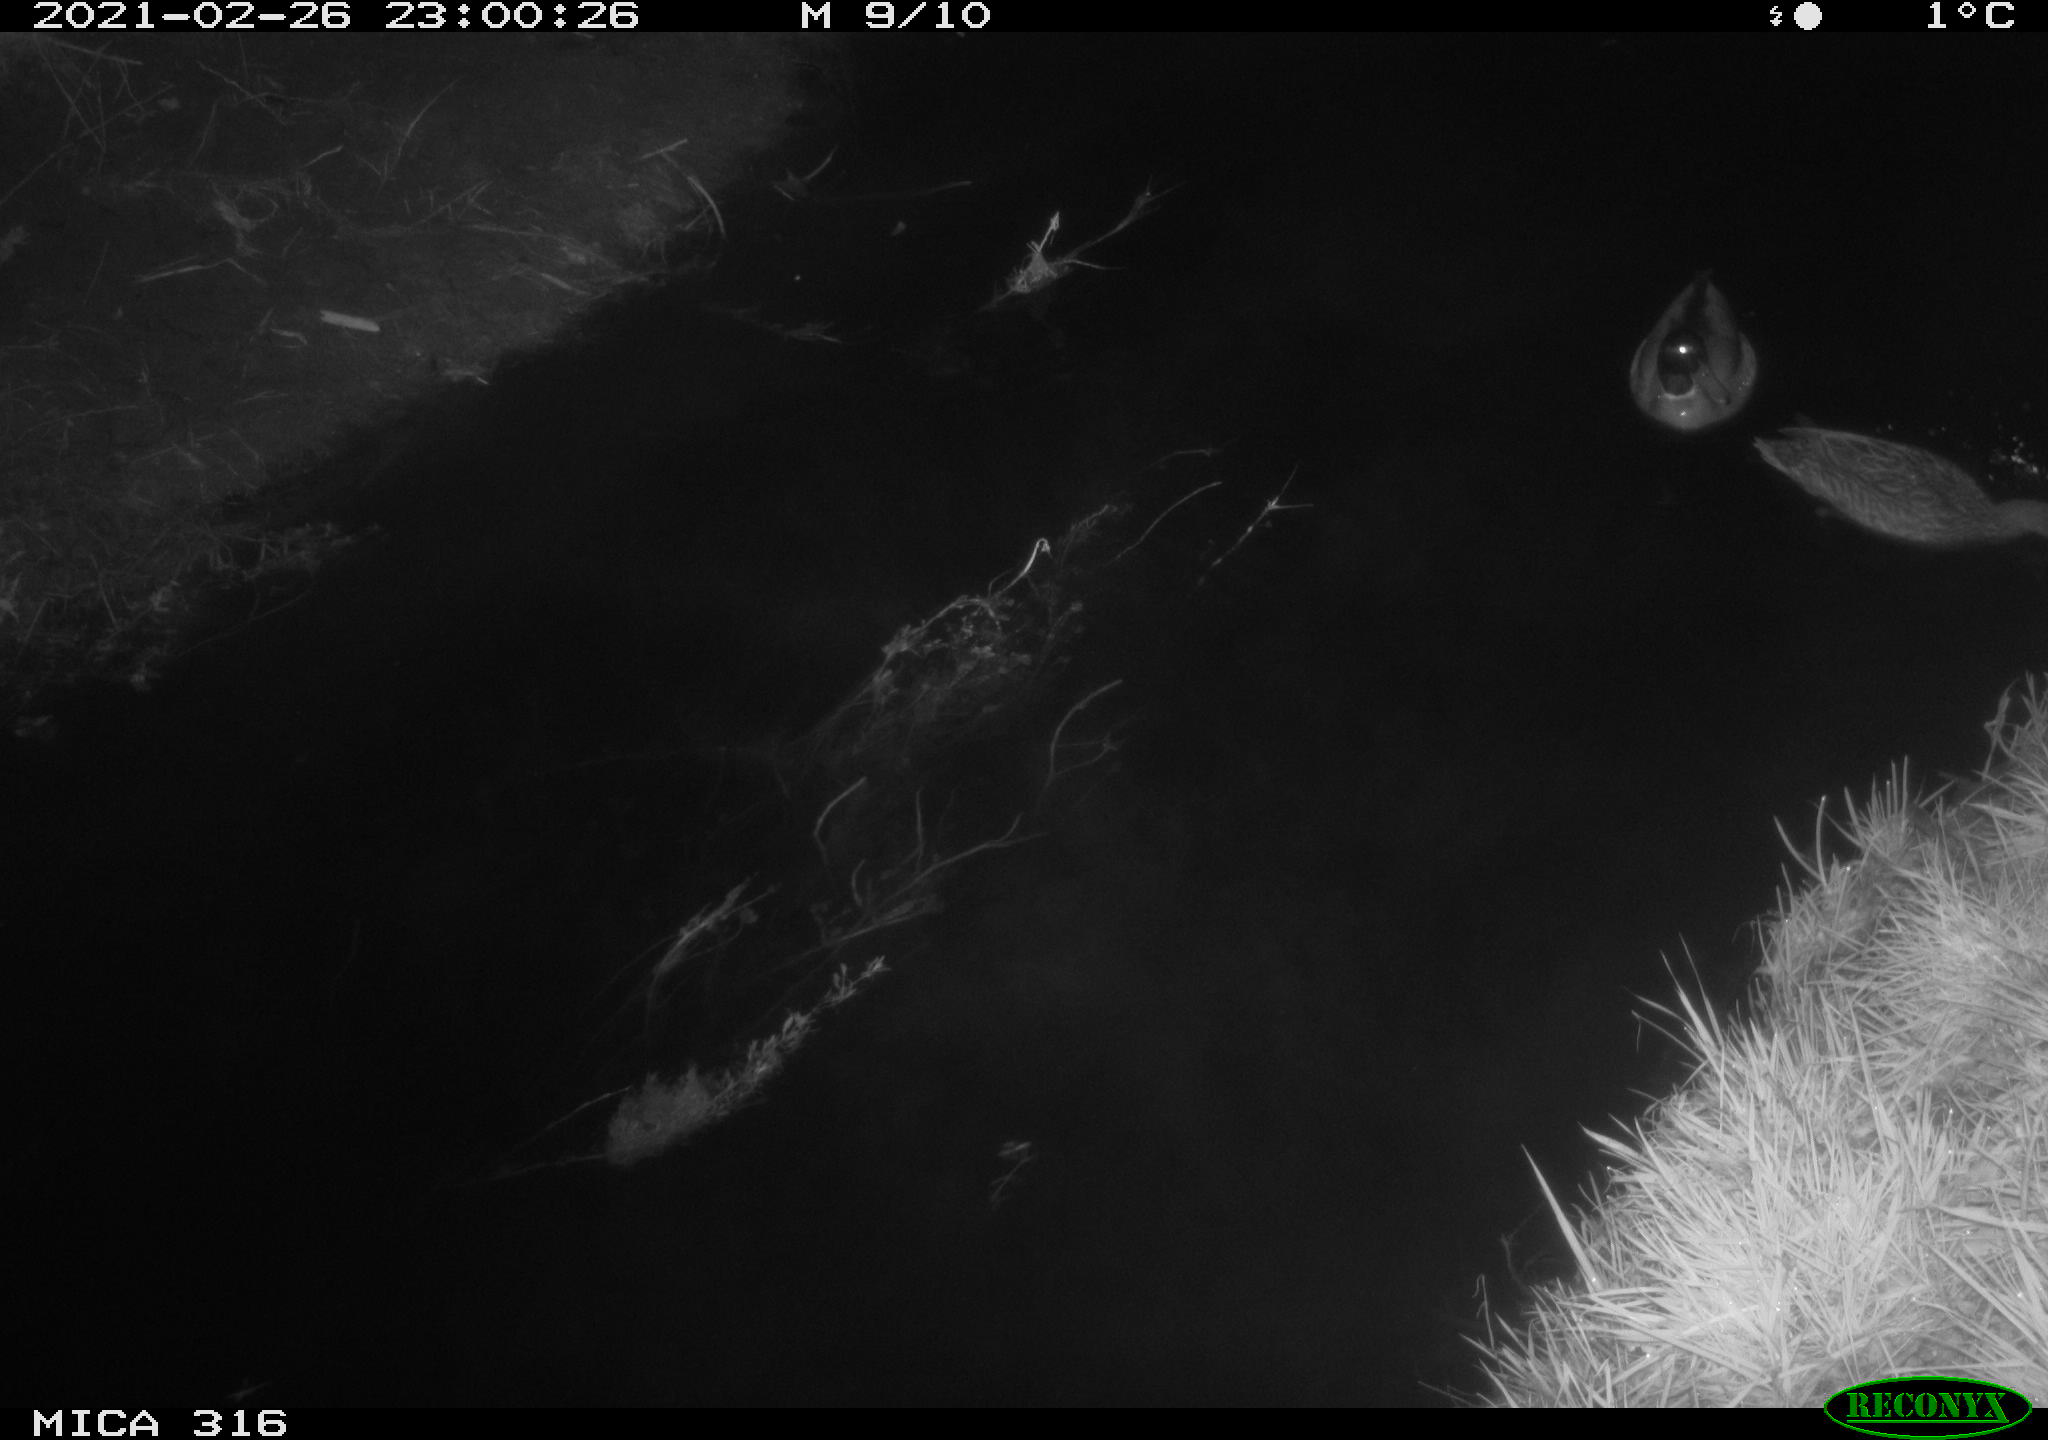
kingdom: Animalia
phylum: Chordata
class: Aves
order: Anseriformes
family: Anatidae
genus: Anas
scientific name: Anas platyrhynchos
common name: Mallard
